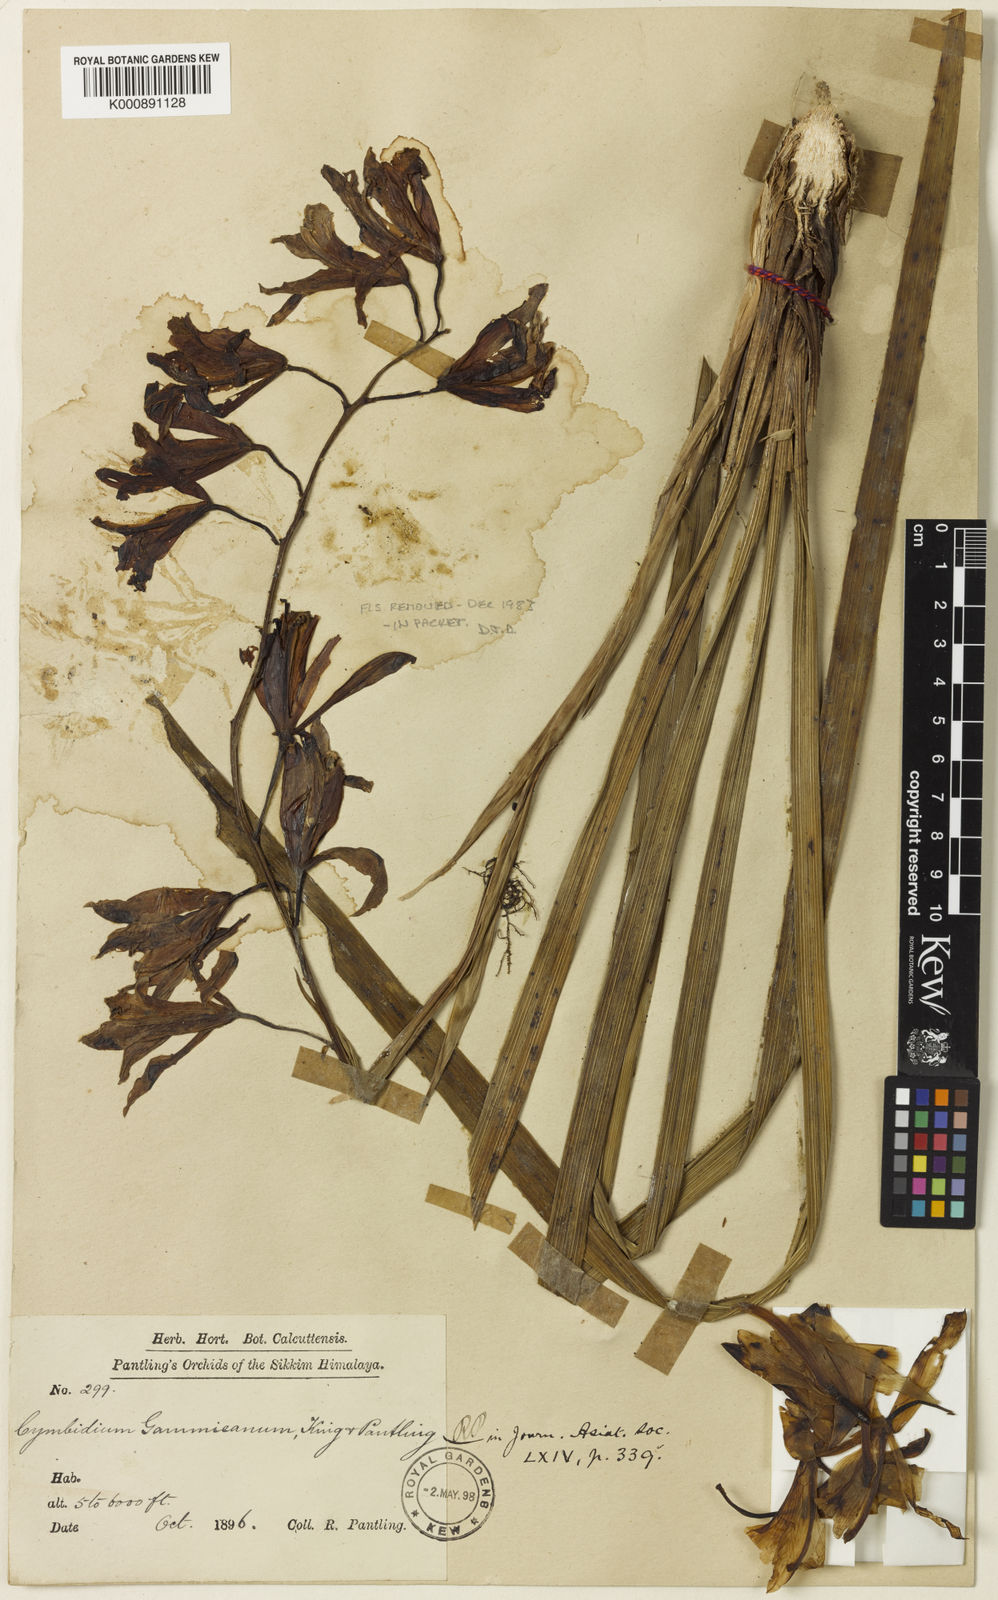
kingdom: Plantae
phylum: Tracheophyta
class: Liliopsida
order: Asparagales
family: Orchidaceae
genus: Cymbidium
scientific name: Cymbidium gammieanum
